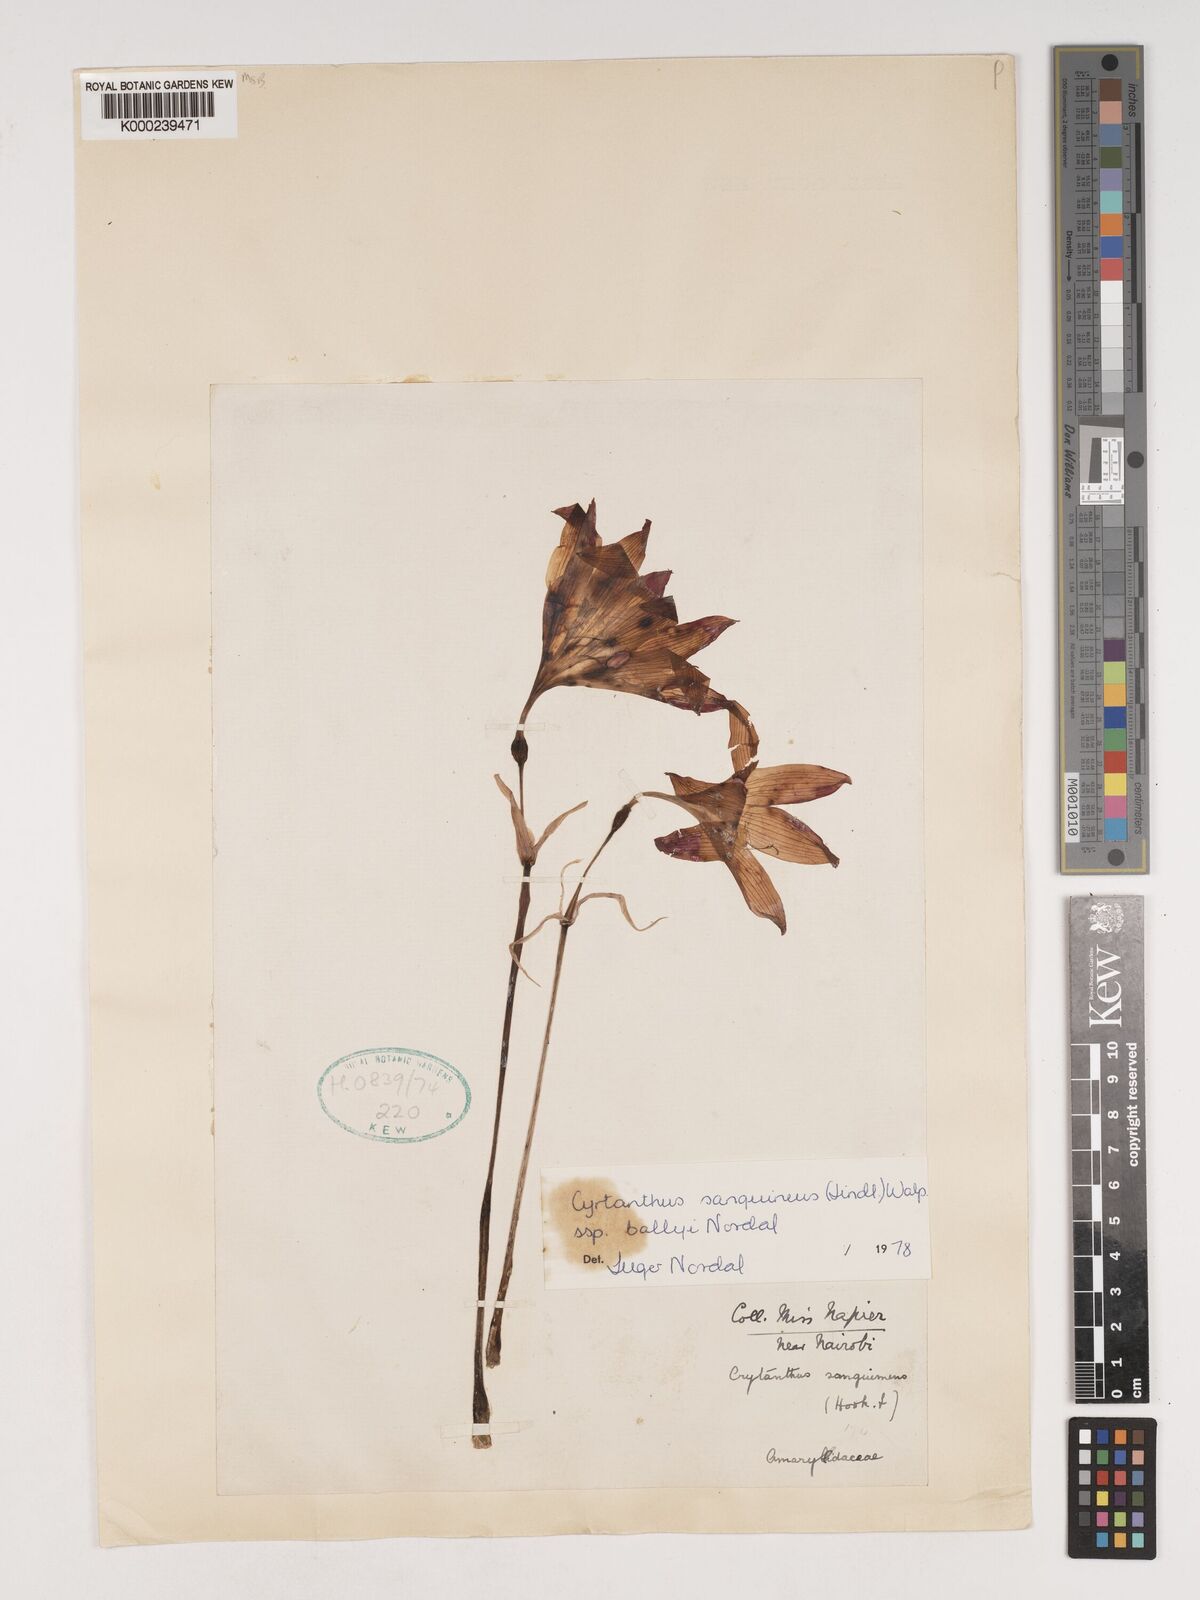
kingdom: Plantae
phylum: Tracheophyta
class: Liliopsida
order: Asparagales
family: Amaryllidaceae
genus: Cyrtanthus
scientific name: Cyrtanthus sanguineus
